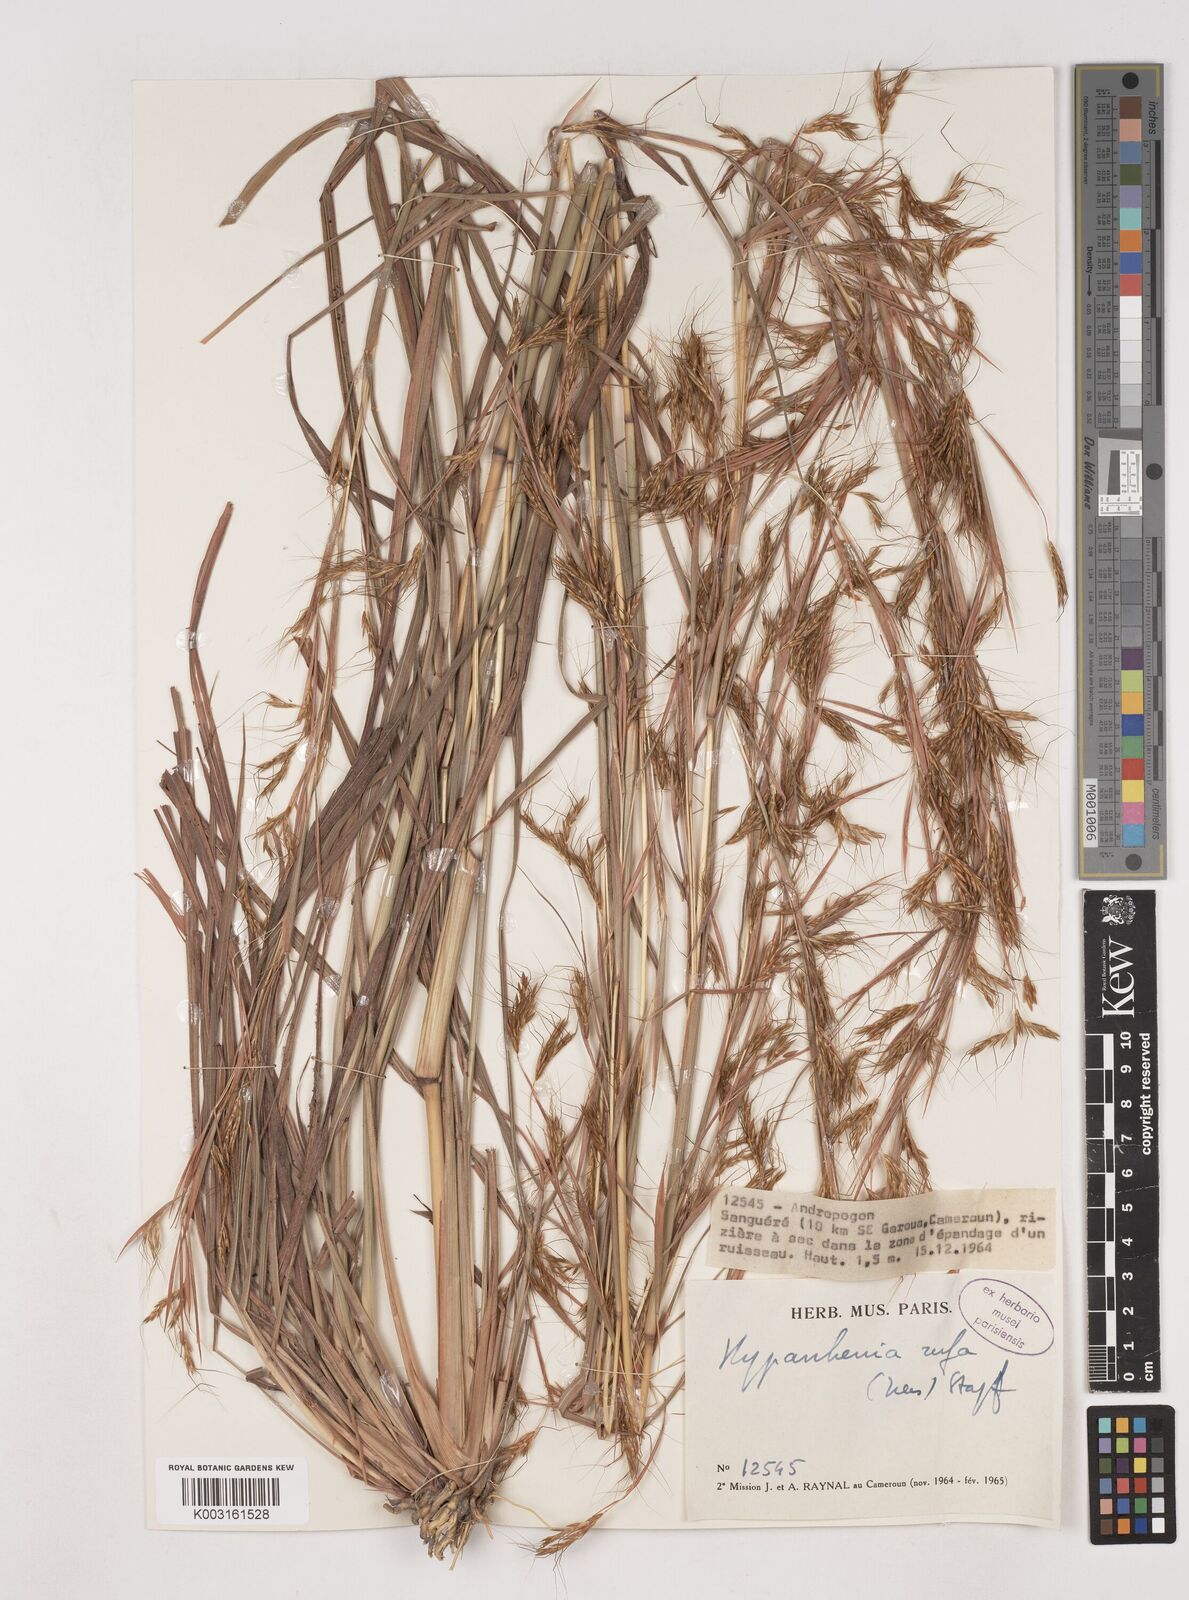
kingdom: Plantae
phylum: Tracheophyta
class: Liliopsida
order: Poales
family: Poaceae
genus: Hyparrhenia
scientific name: Hyparrhenia rufa
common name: Jaraguagrass
